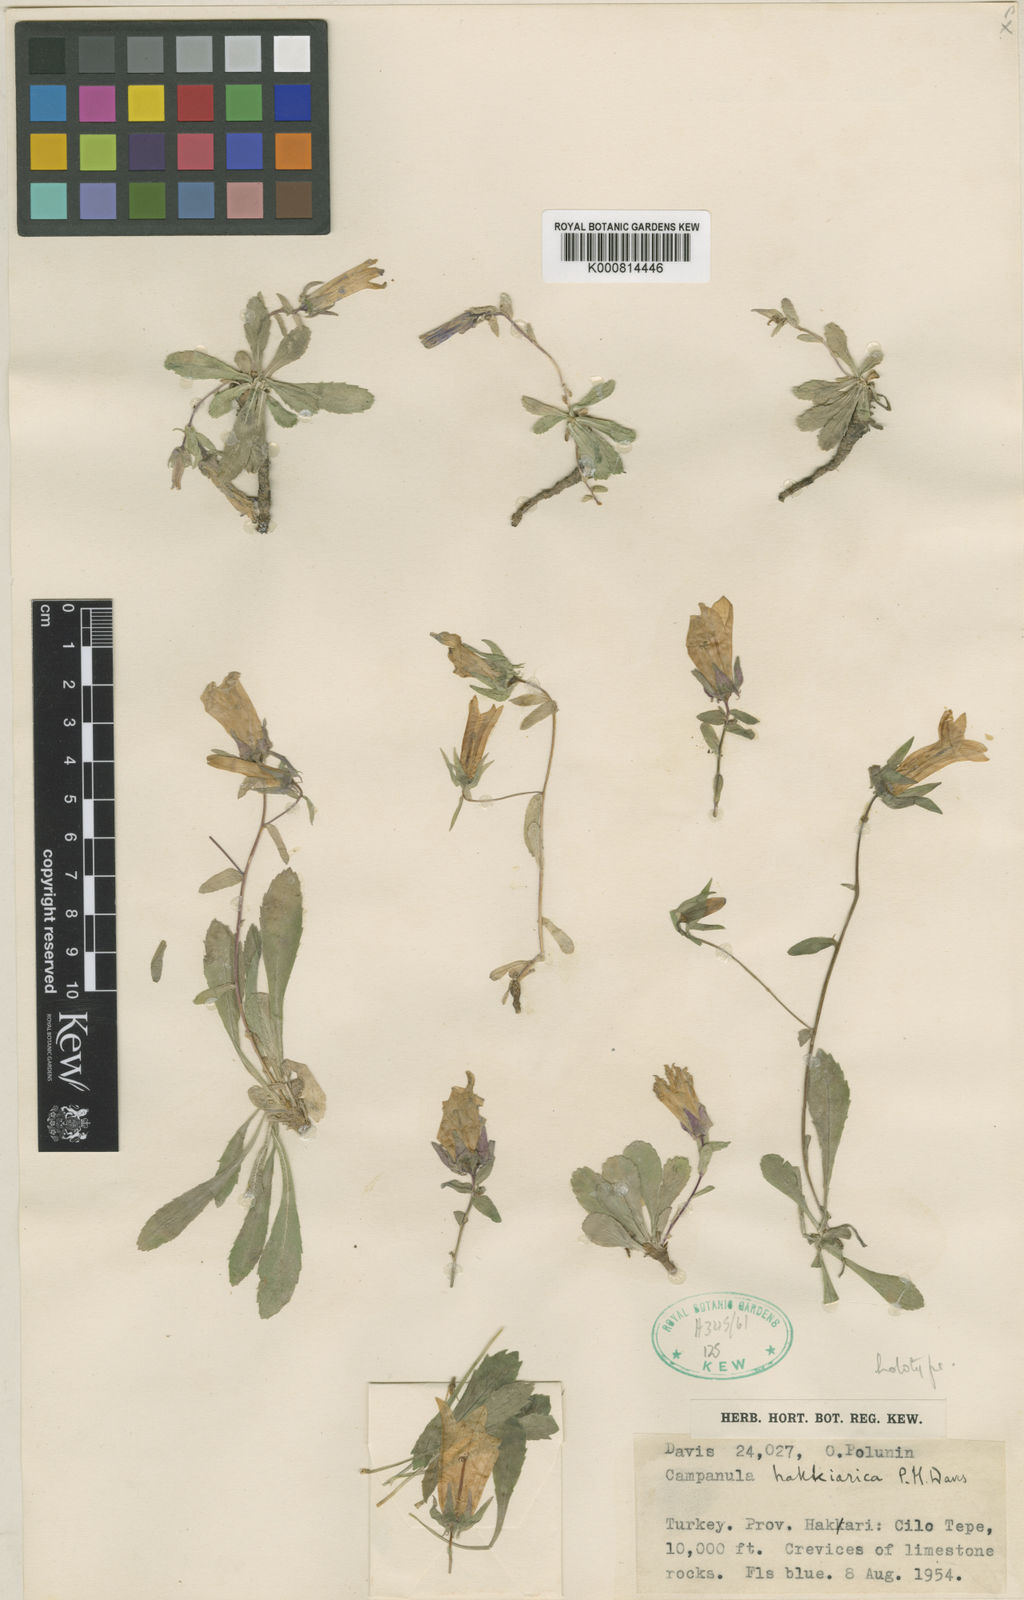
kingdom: Plantae
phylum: Tracheophyta
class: Magnoliopsida
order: Asterales
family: Campanulaceae
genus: Campanula
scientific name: Campanula karakuschensis
